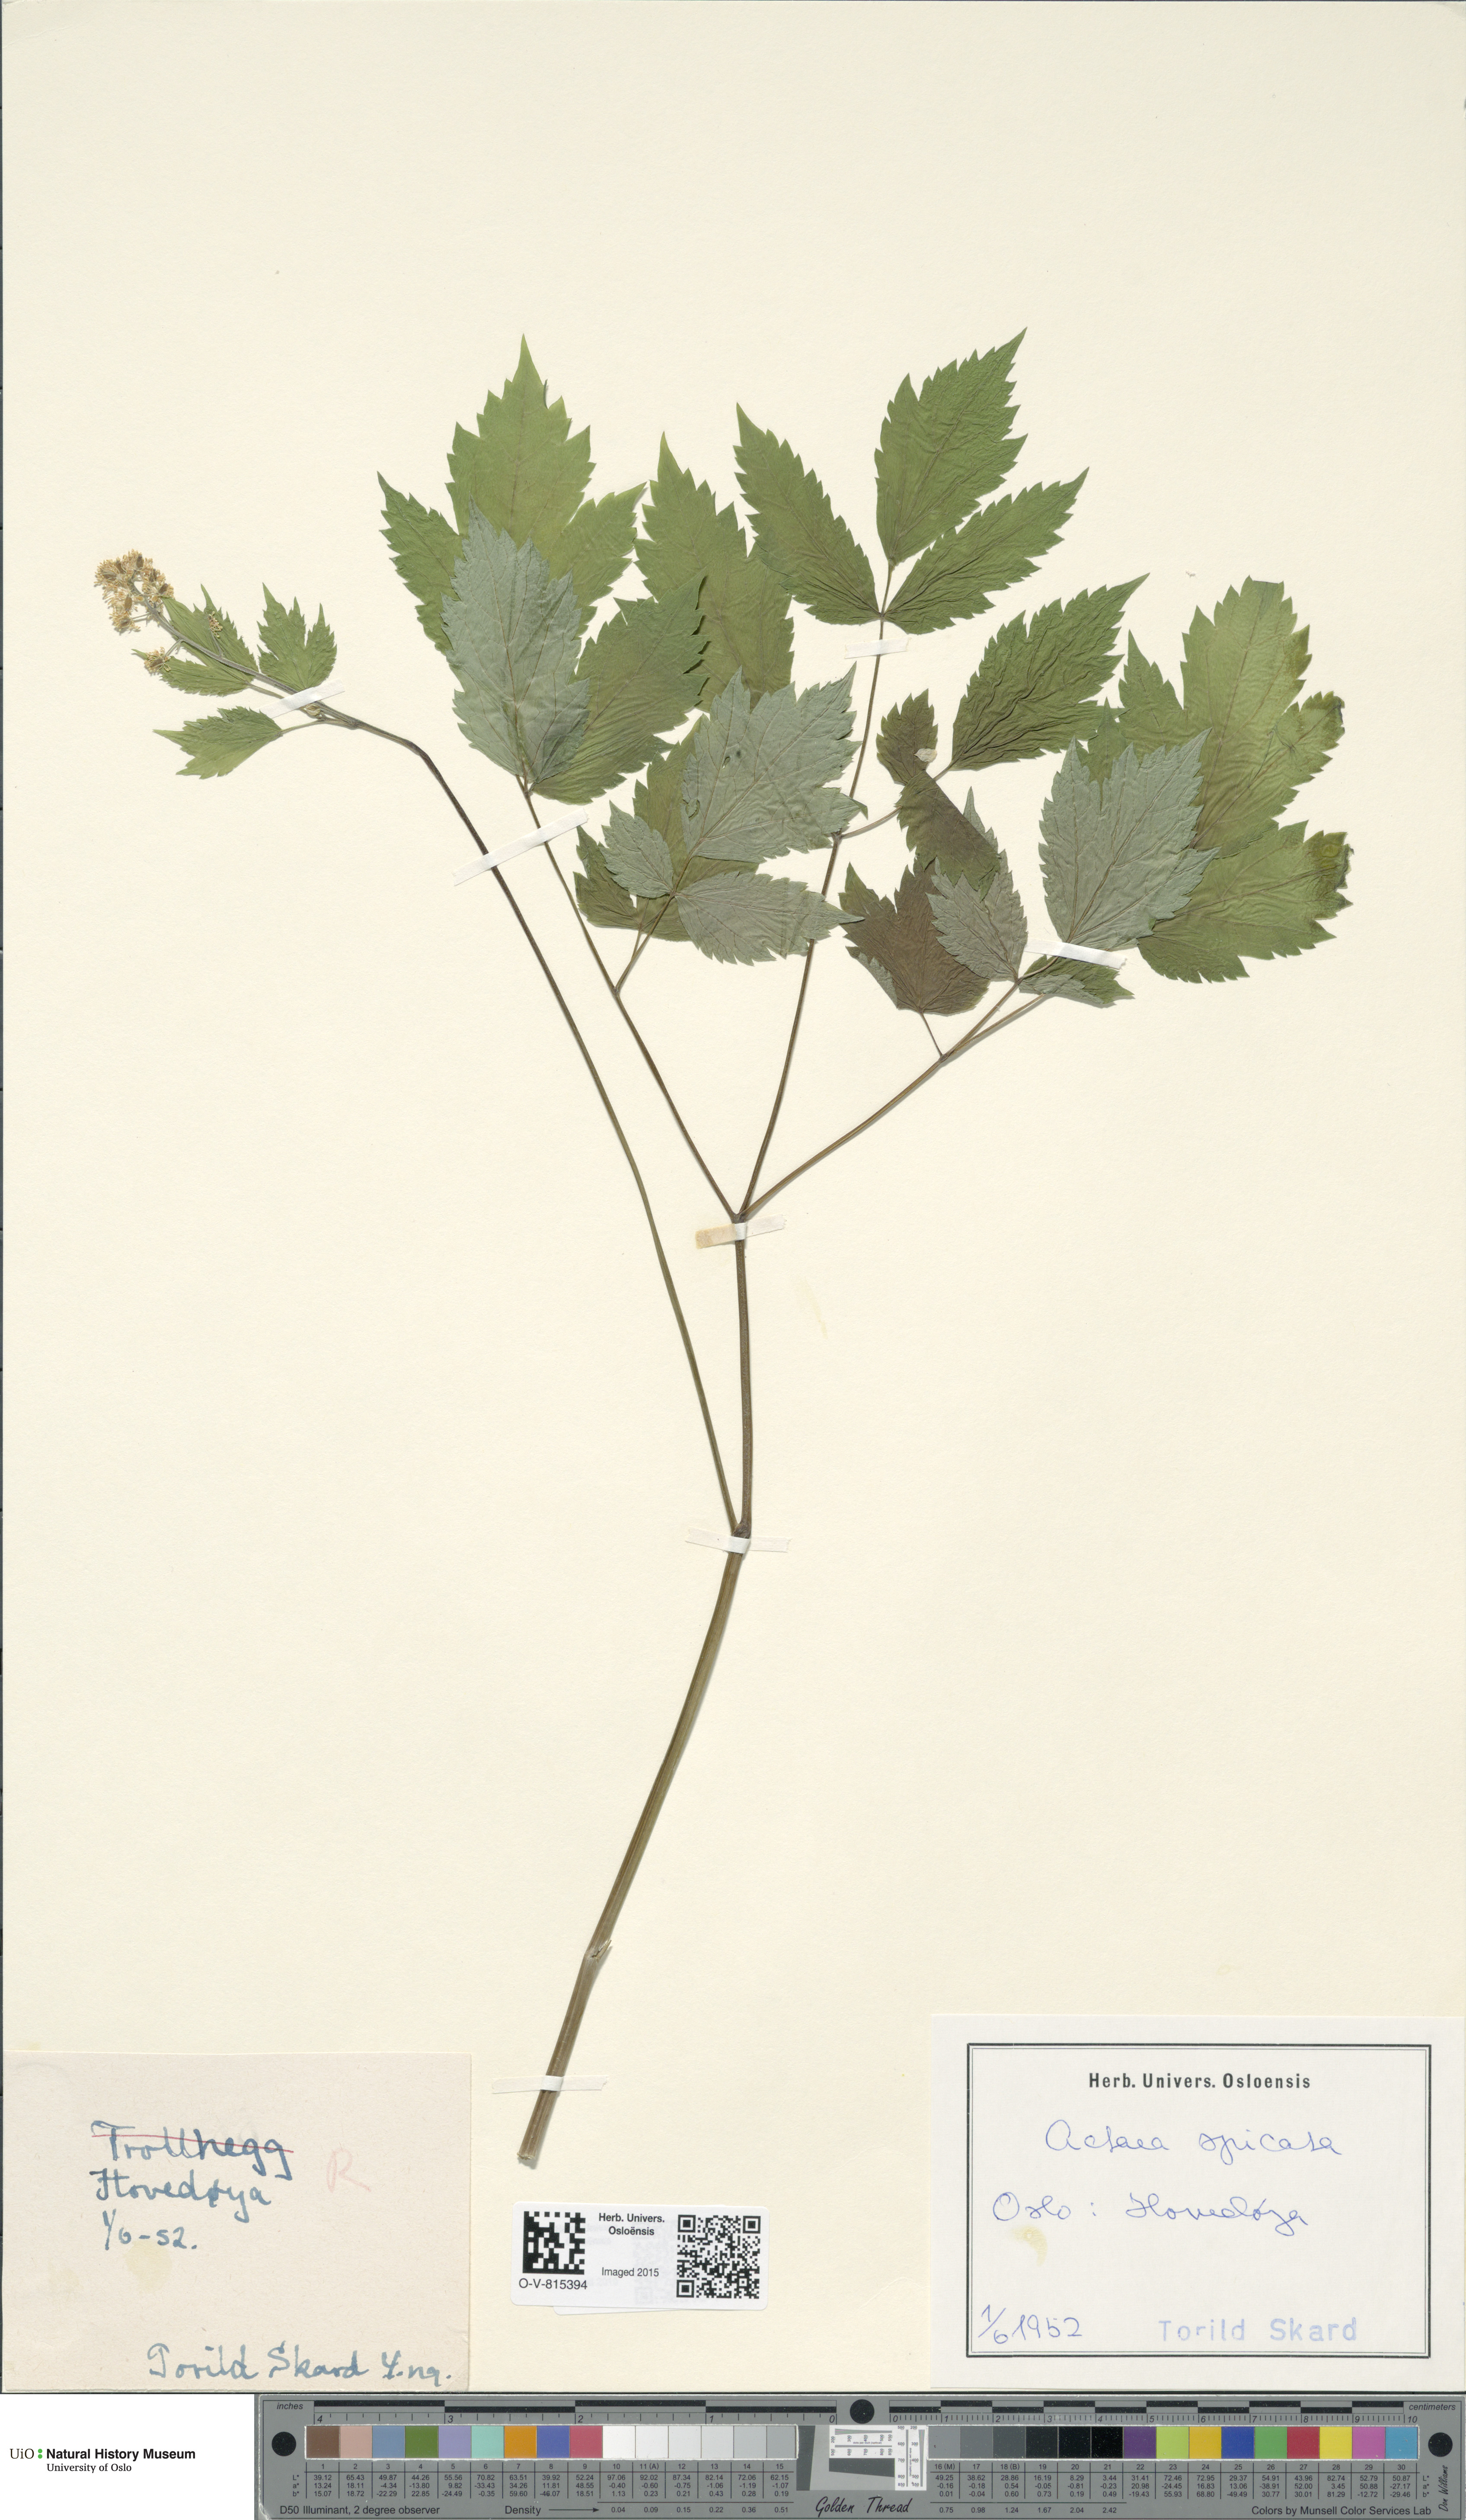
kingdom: Plantae
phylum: Tracheophyta
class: Magnoliopsida
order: Ranunculales
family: Ranunculaceae
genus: Actaea
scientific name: Actaea spicata
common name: Baneberry
